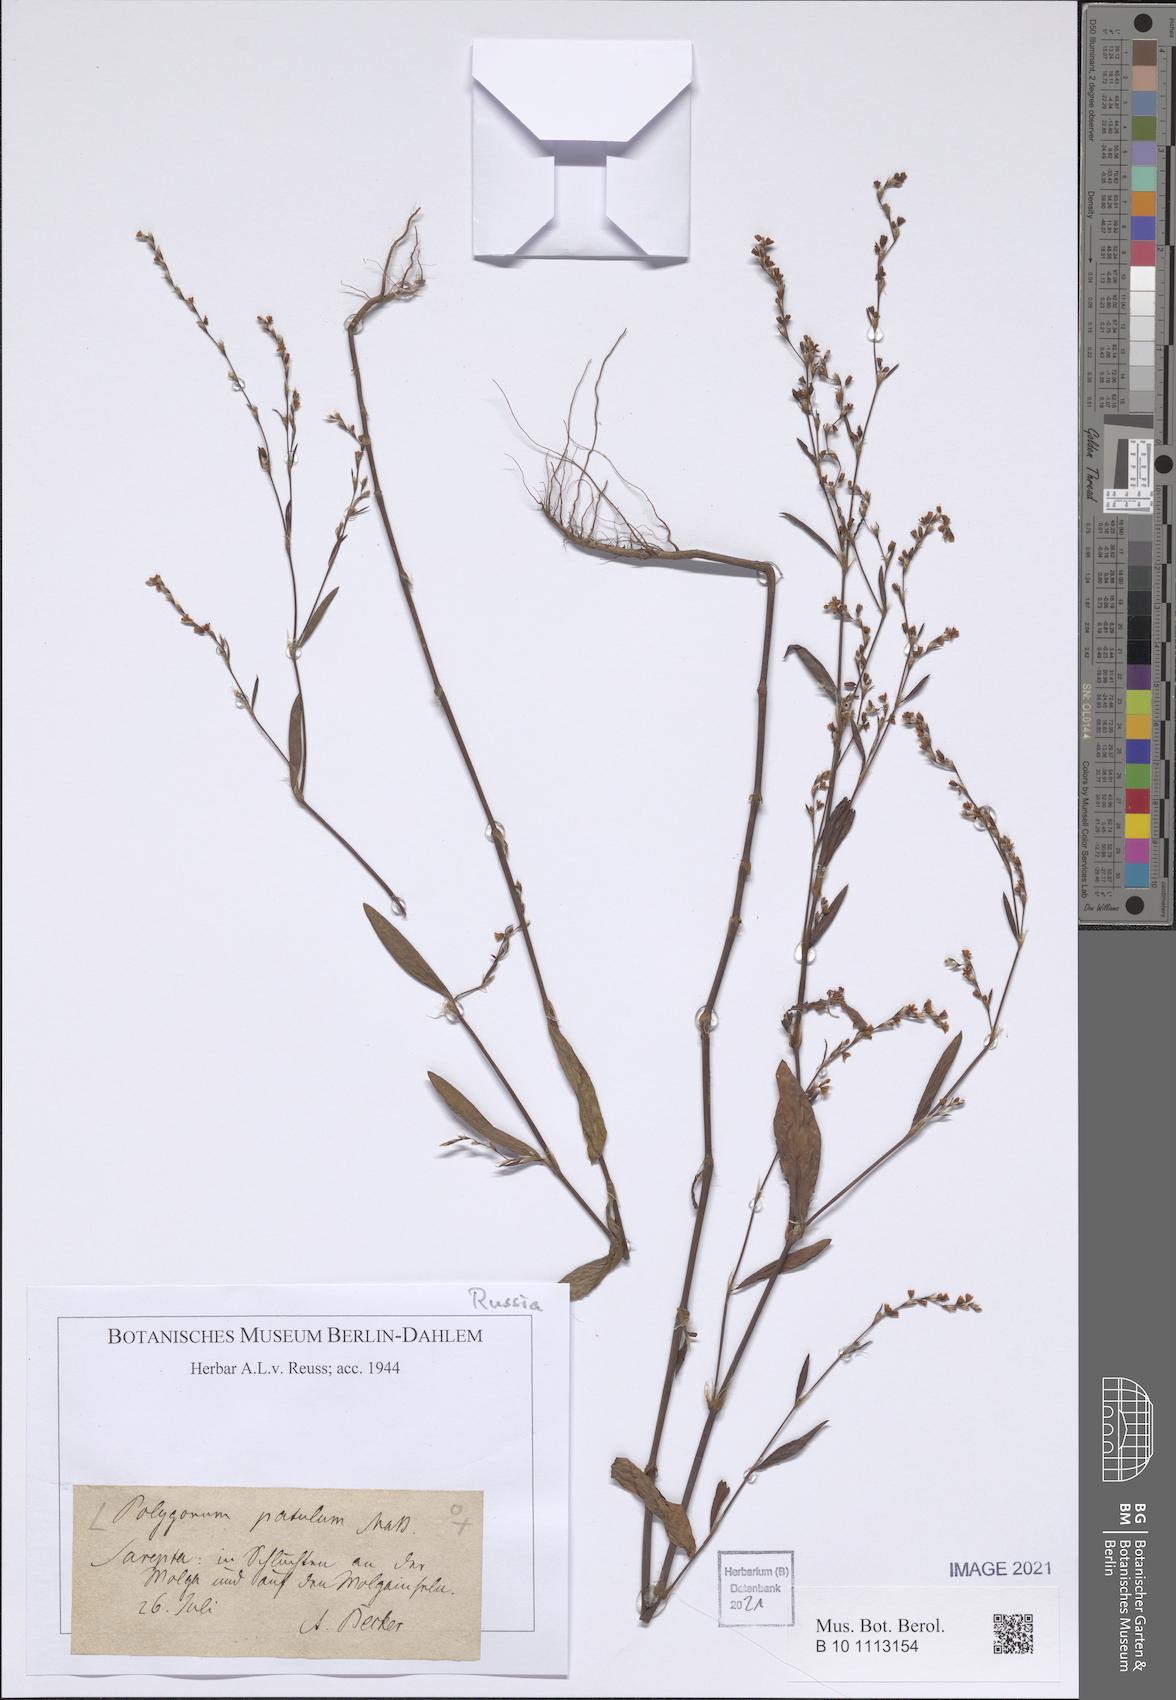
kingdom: Plantae
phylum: Tracheophyta
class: Magnoliopsida
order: Caryophyllales
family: Polygonaceae
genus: Polygonum
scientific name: Polygonum patulum
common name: Red-knotgrass
